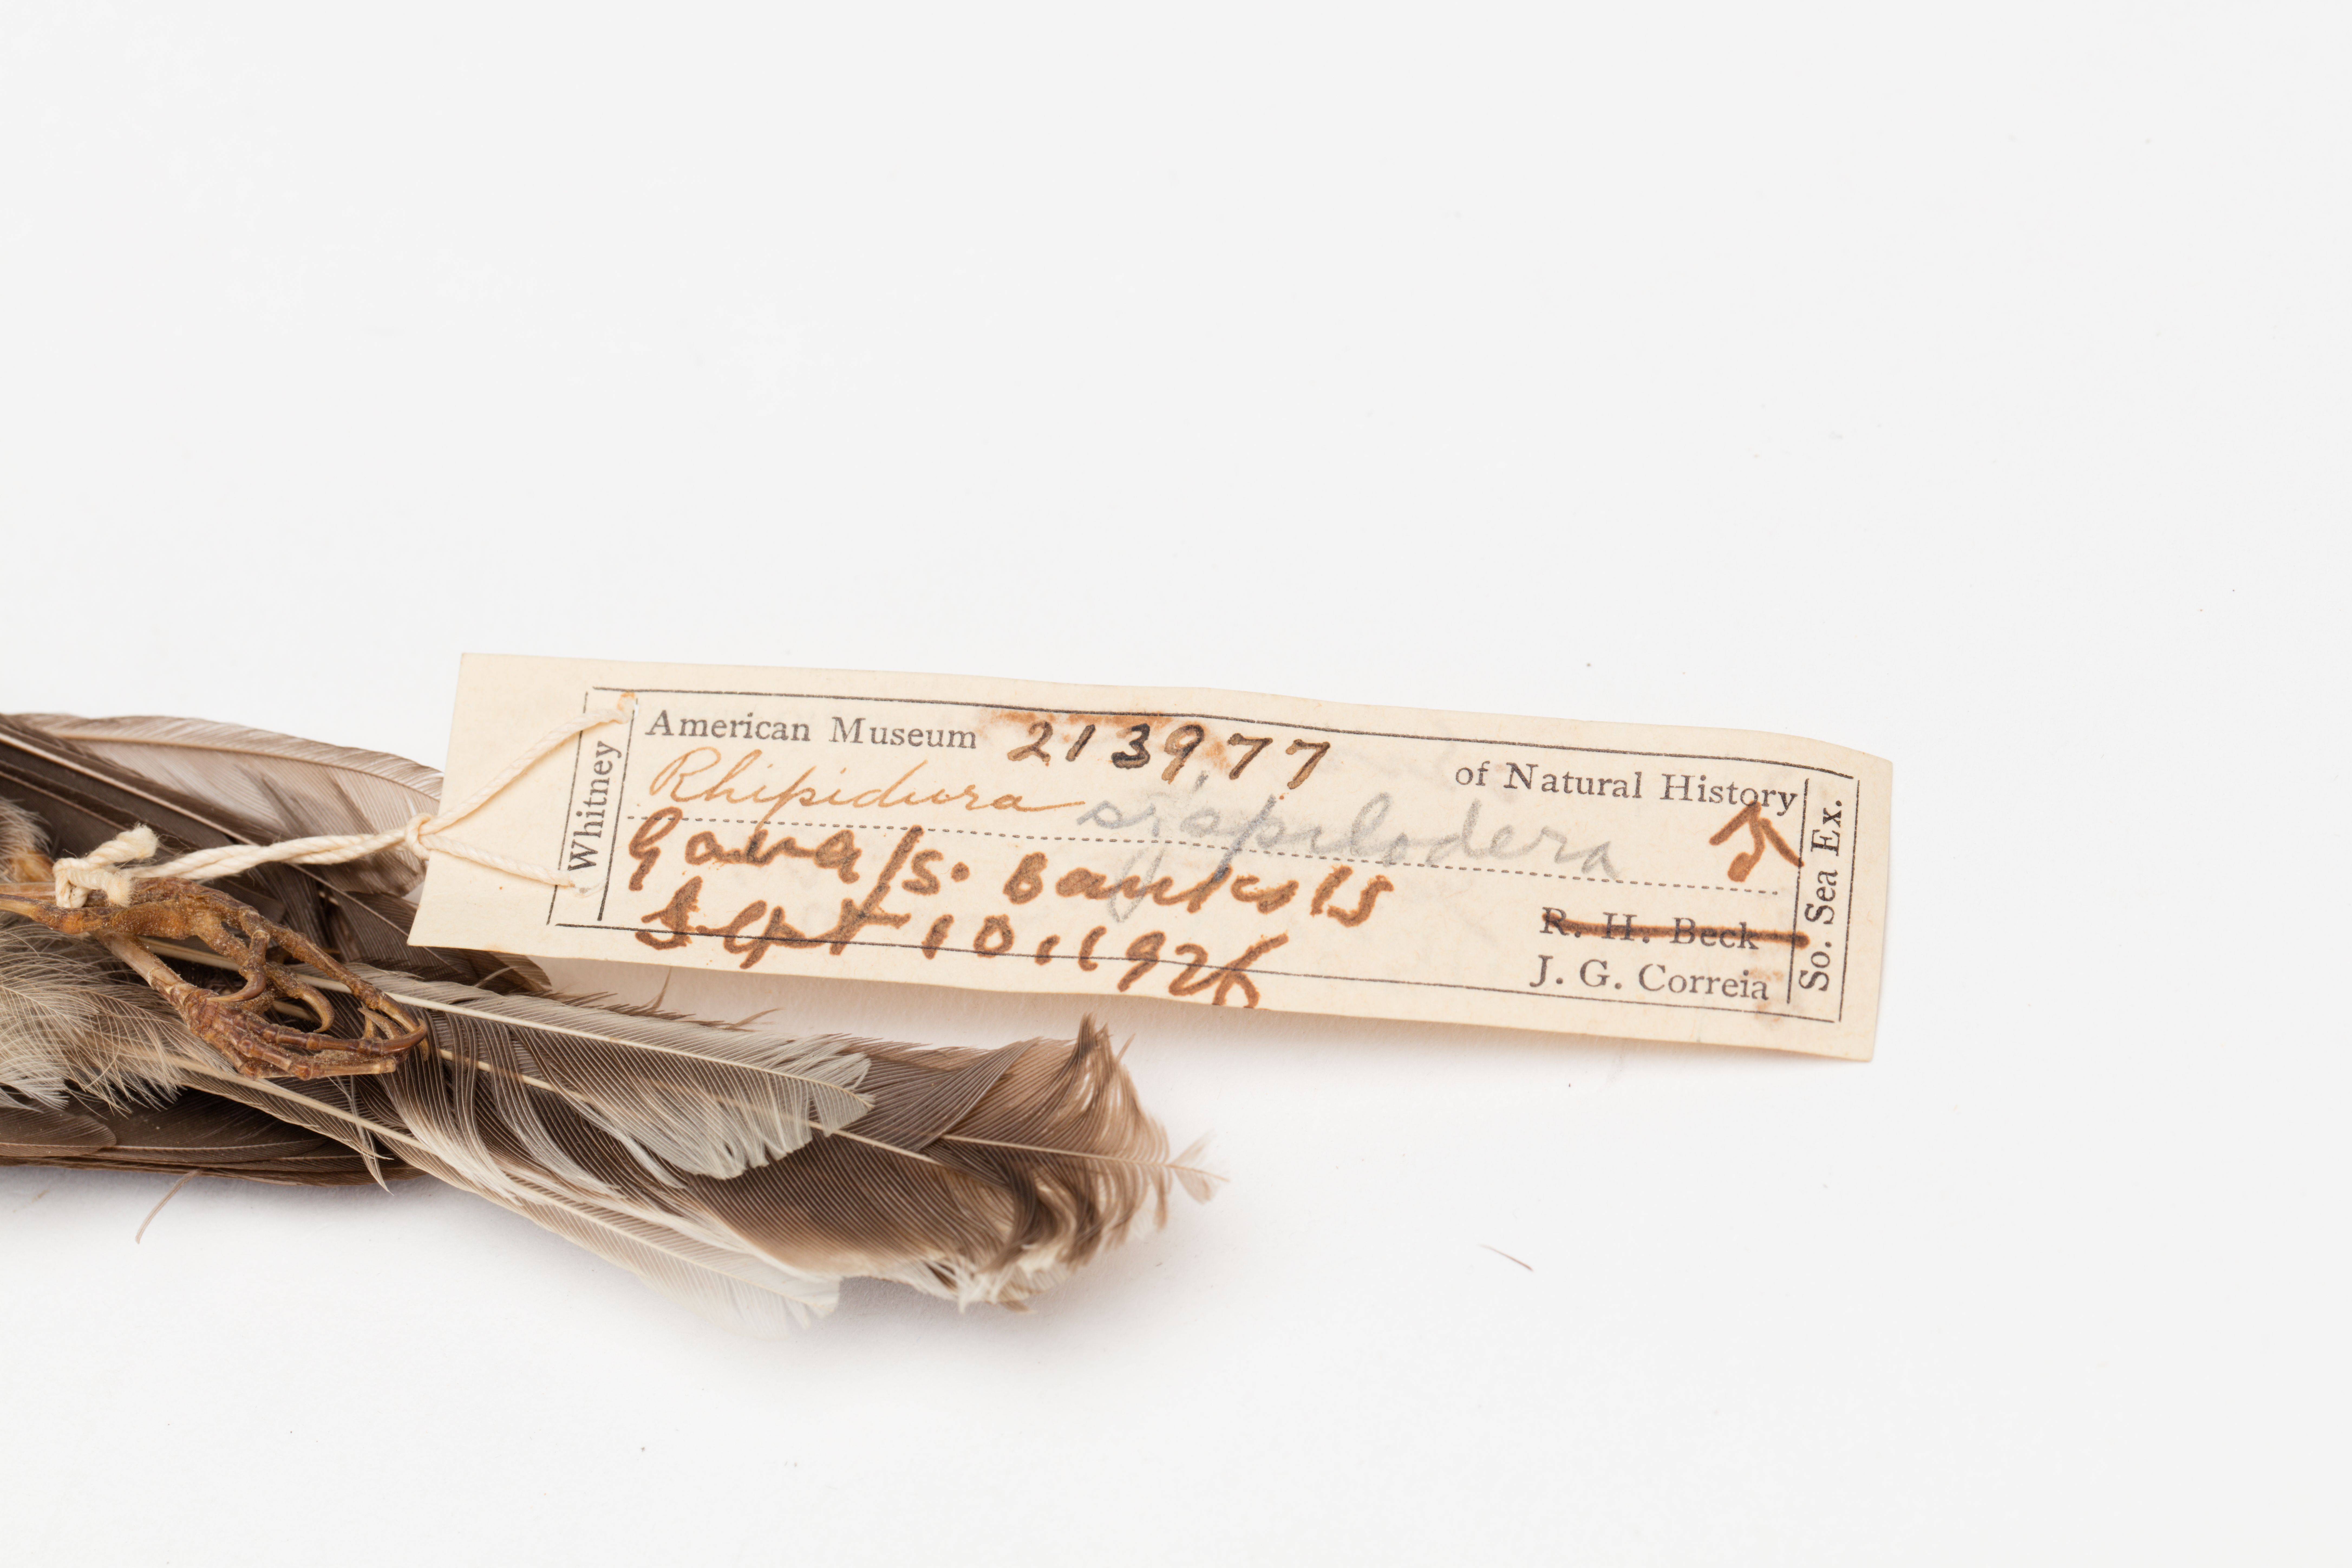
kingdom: Animalia
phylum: Chordata
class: Aves
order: Passeriformes
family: Rhipiduridae
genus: Rhipidura
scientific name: Rhipidura verreauxi
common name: Streaked fantail
